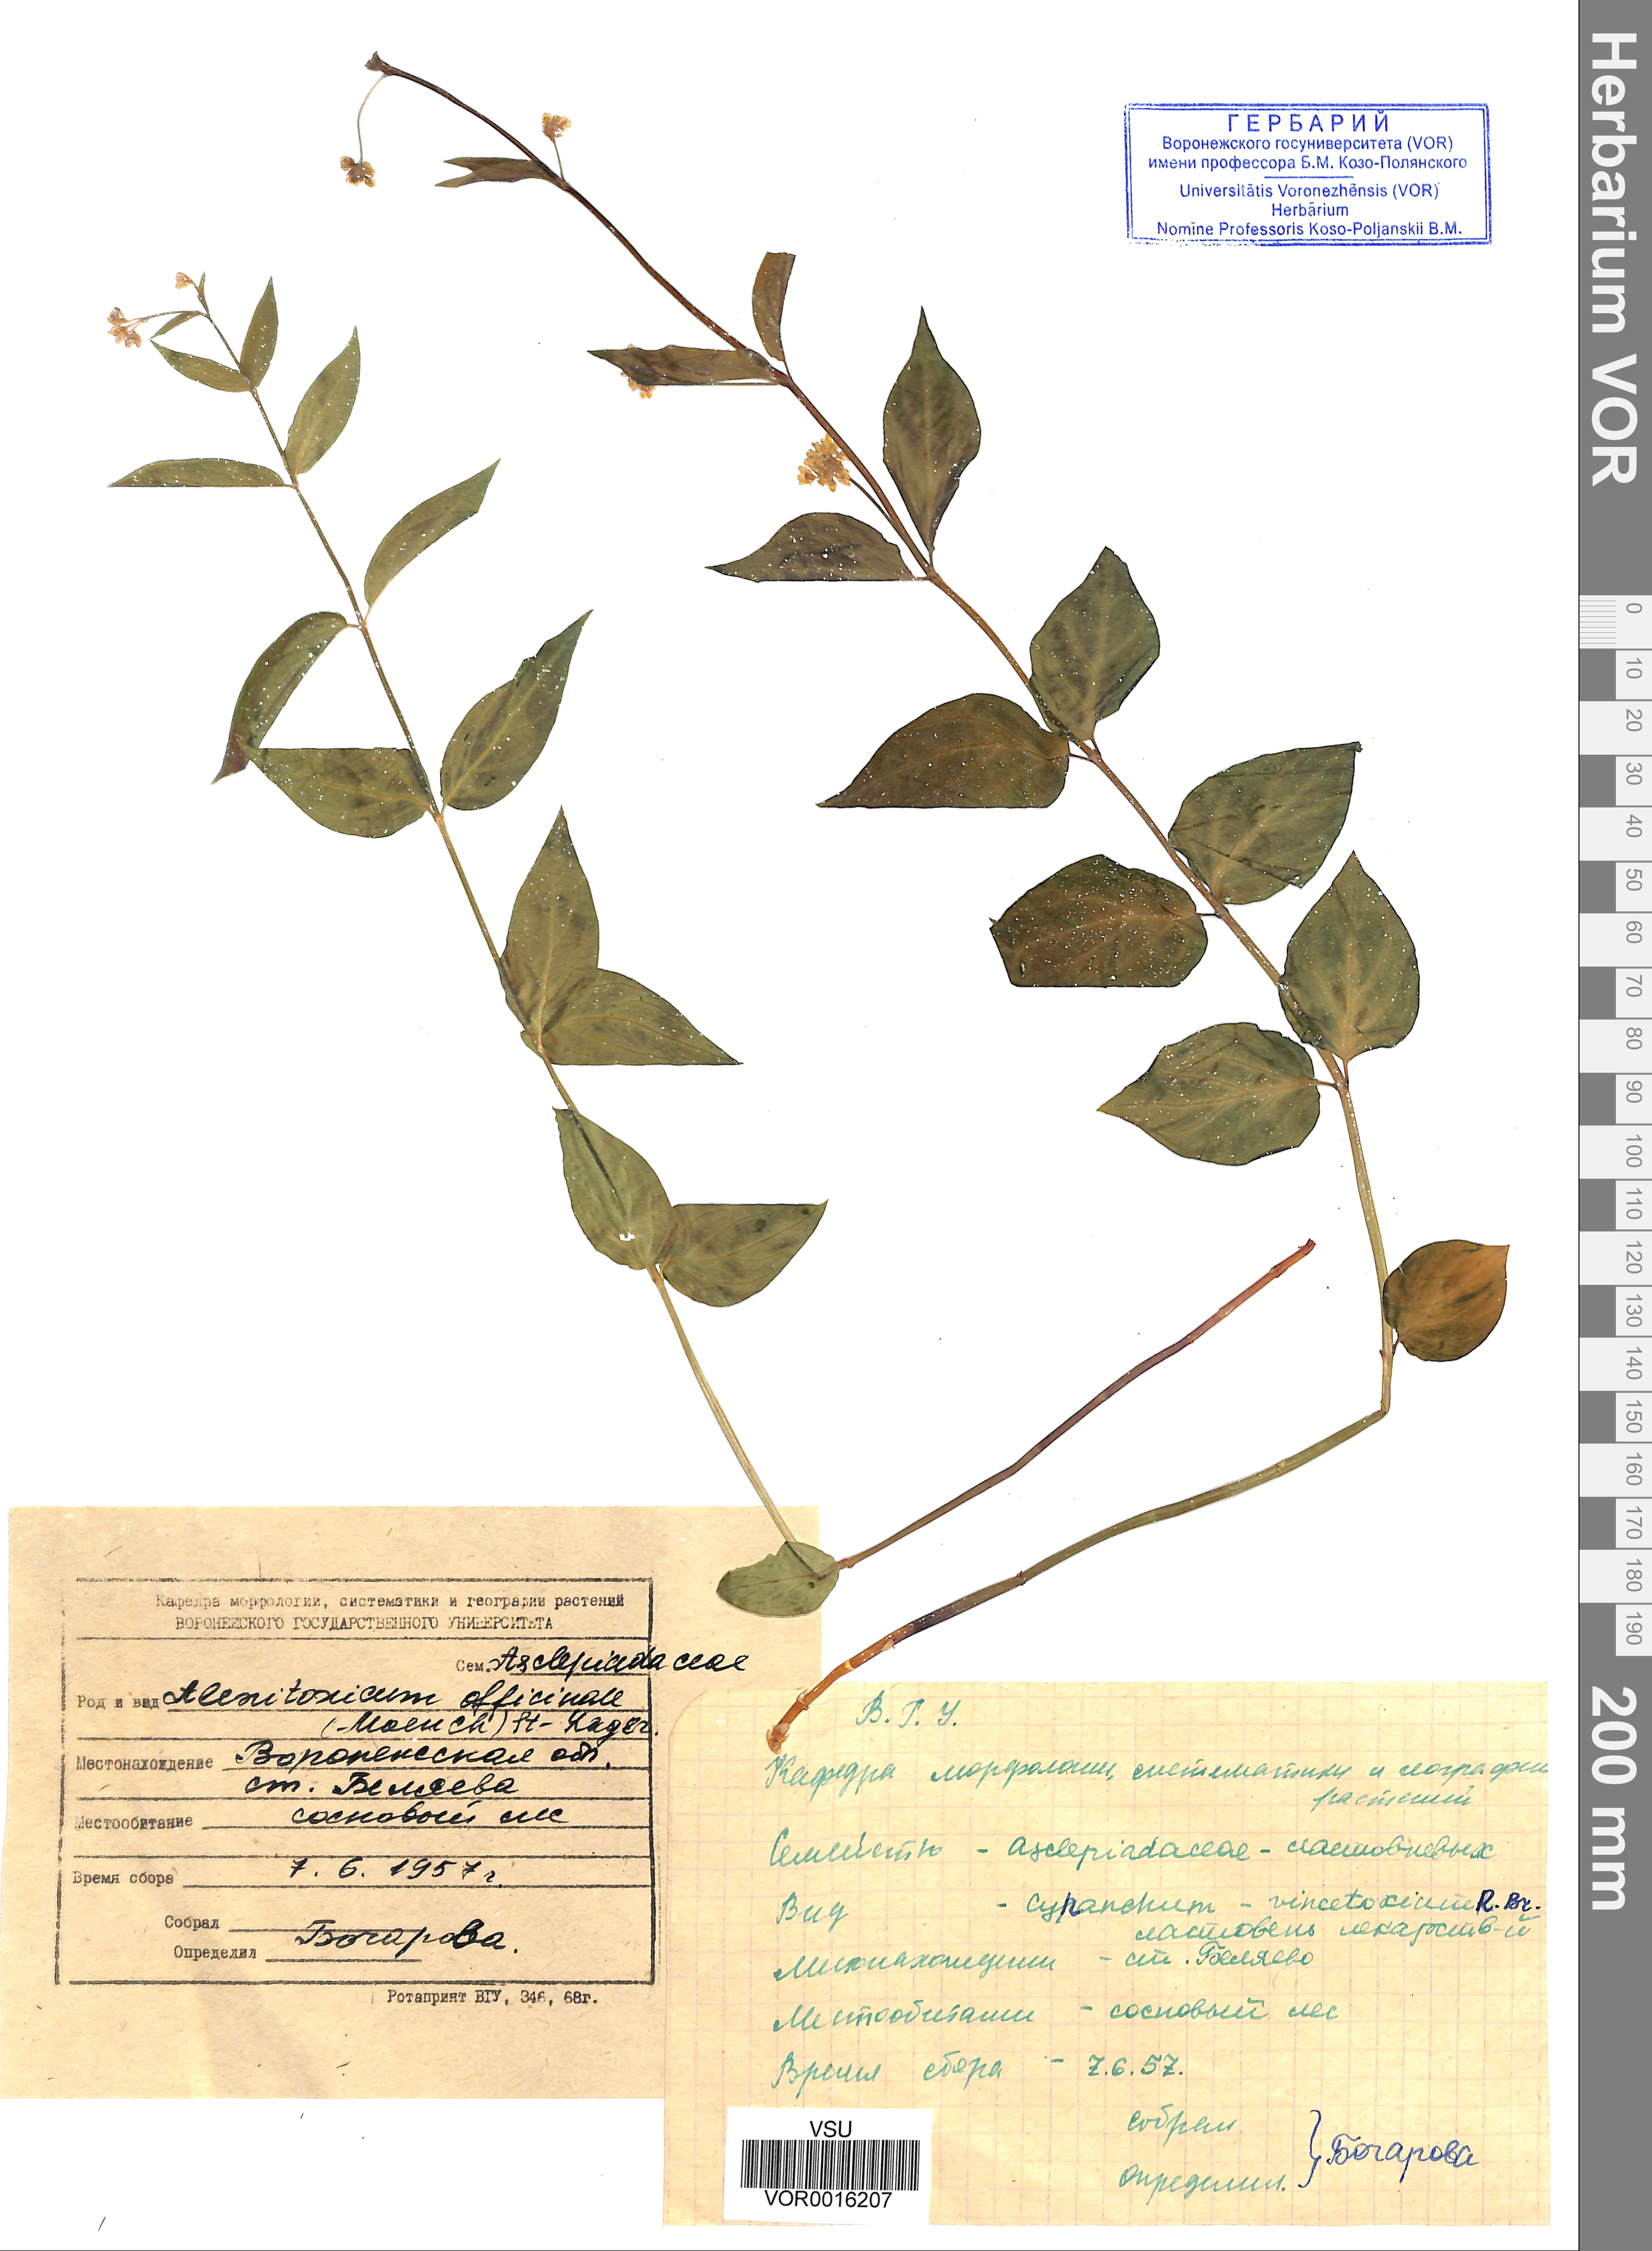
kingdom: Plantae
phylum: Tracheophyta
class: Magnoliopsida
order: Gentianales
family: Apocynaceae
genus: Vincetoxicum
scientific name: Vincetoxicum hirundinaria
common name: White swallowwort
